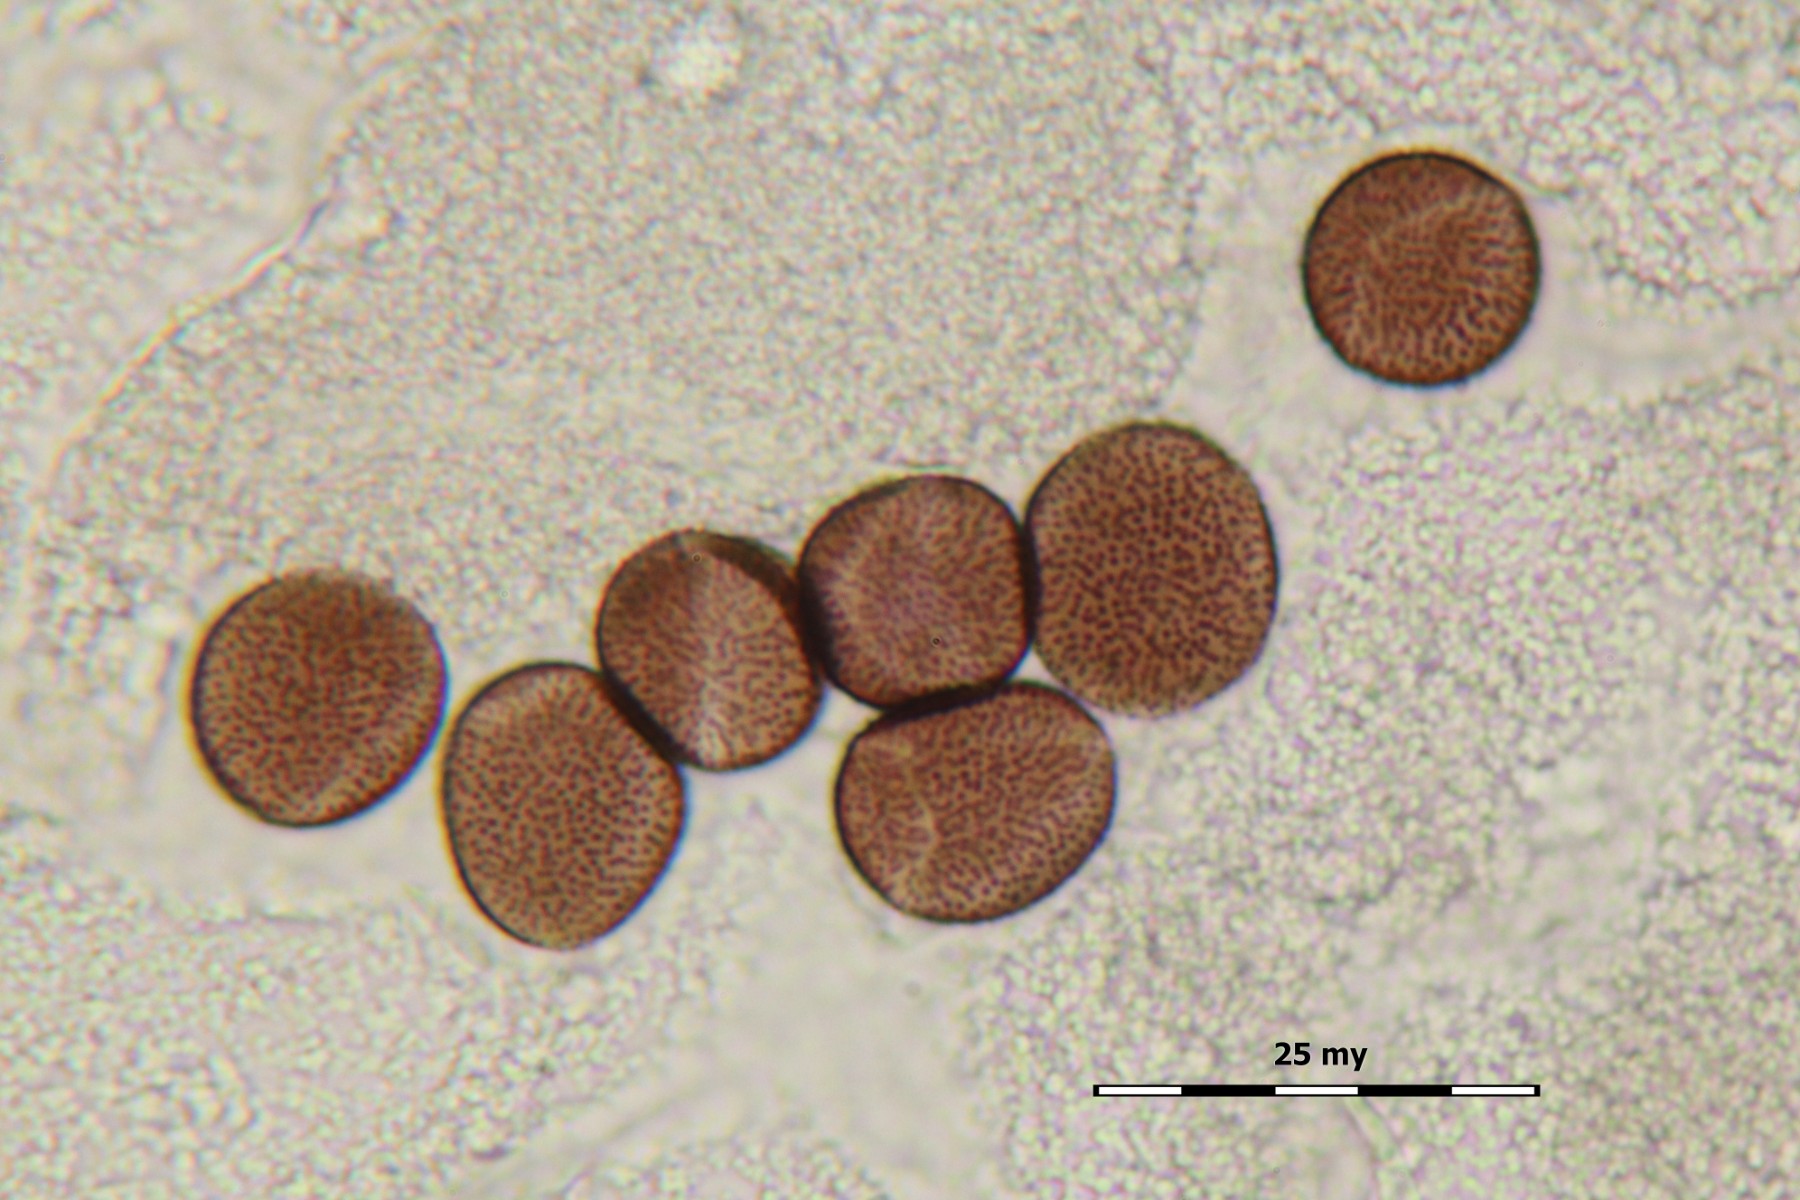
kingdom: Protozoa
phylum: Mycetozoa
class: Myxomycetes
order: Physarales
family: Physaraceae
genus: Badhamia
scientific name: Badhamia goniospora
